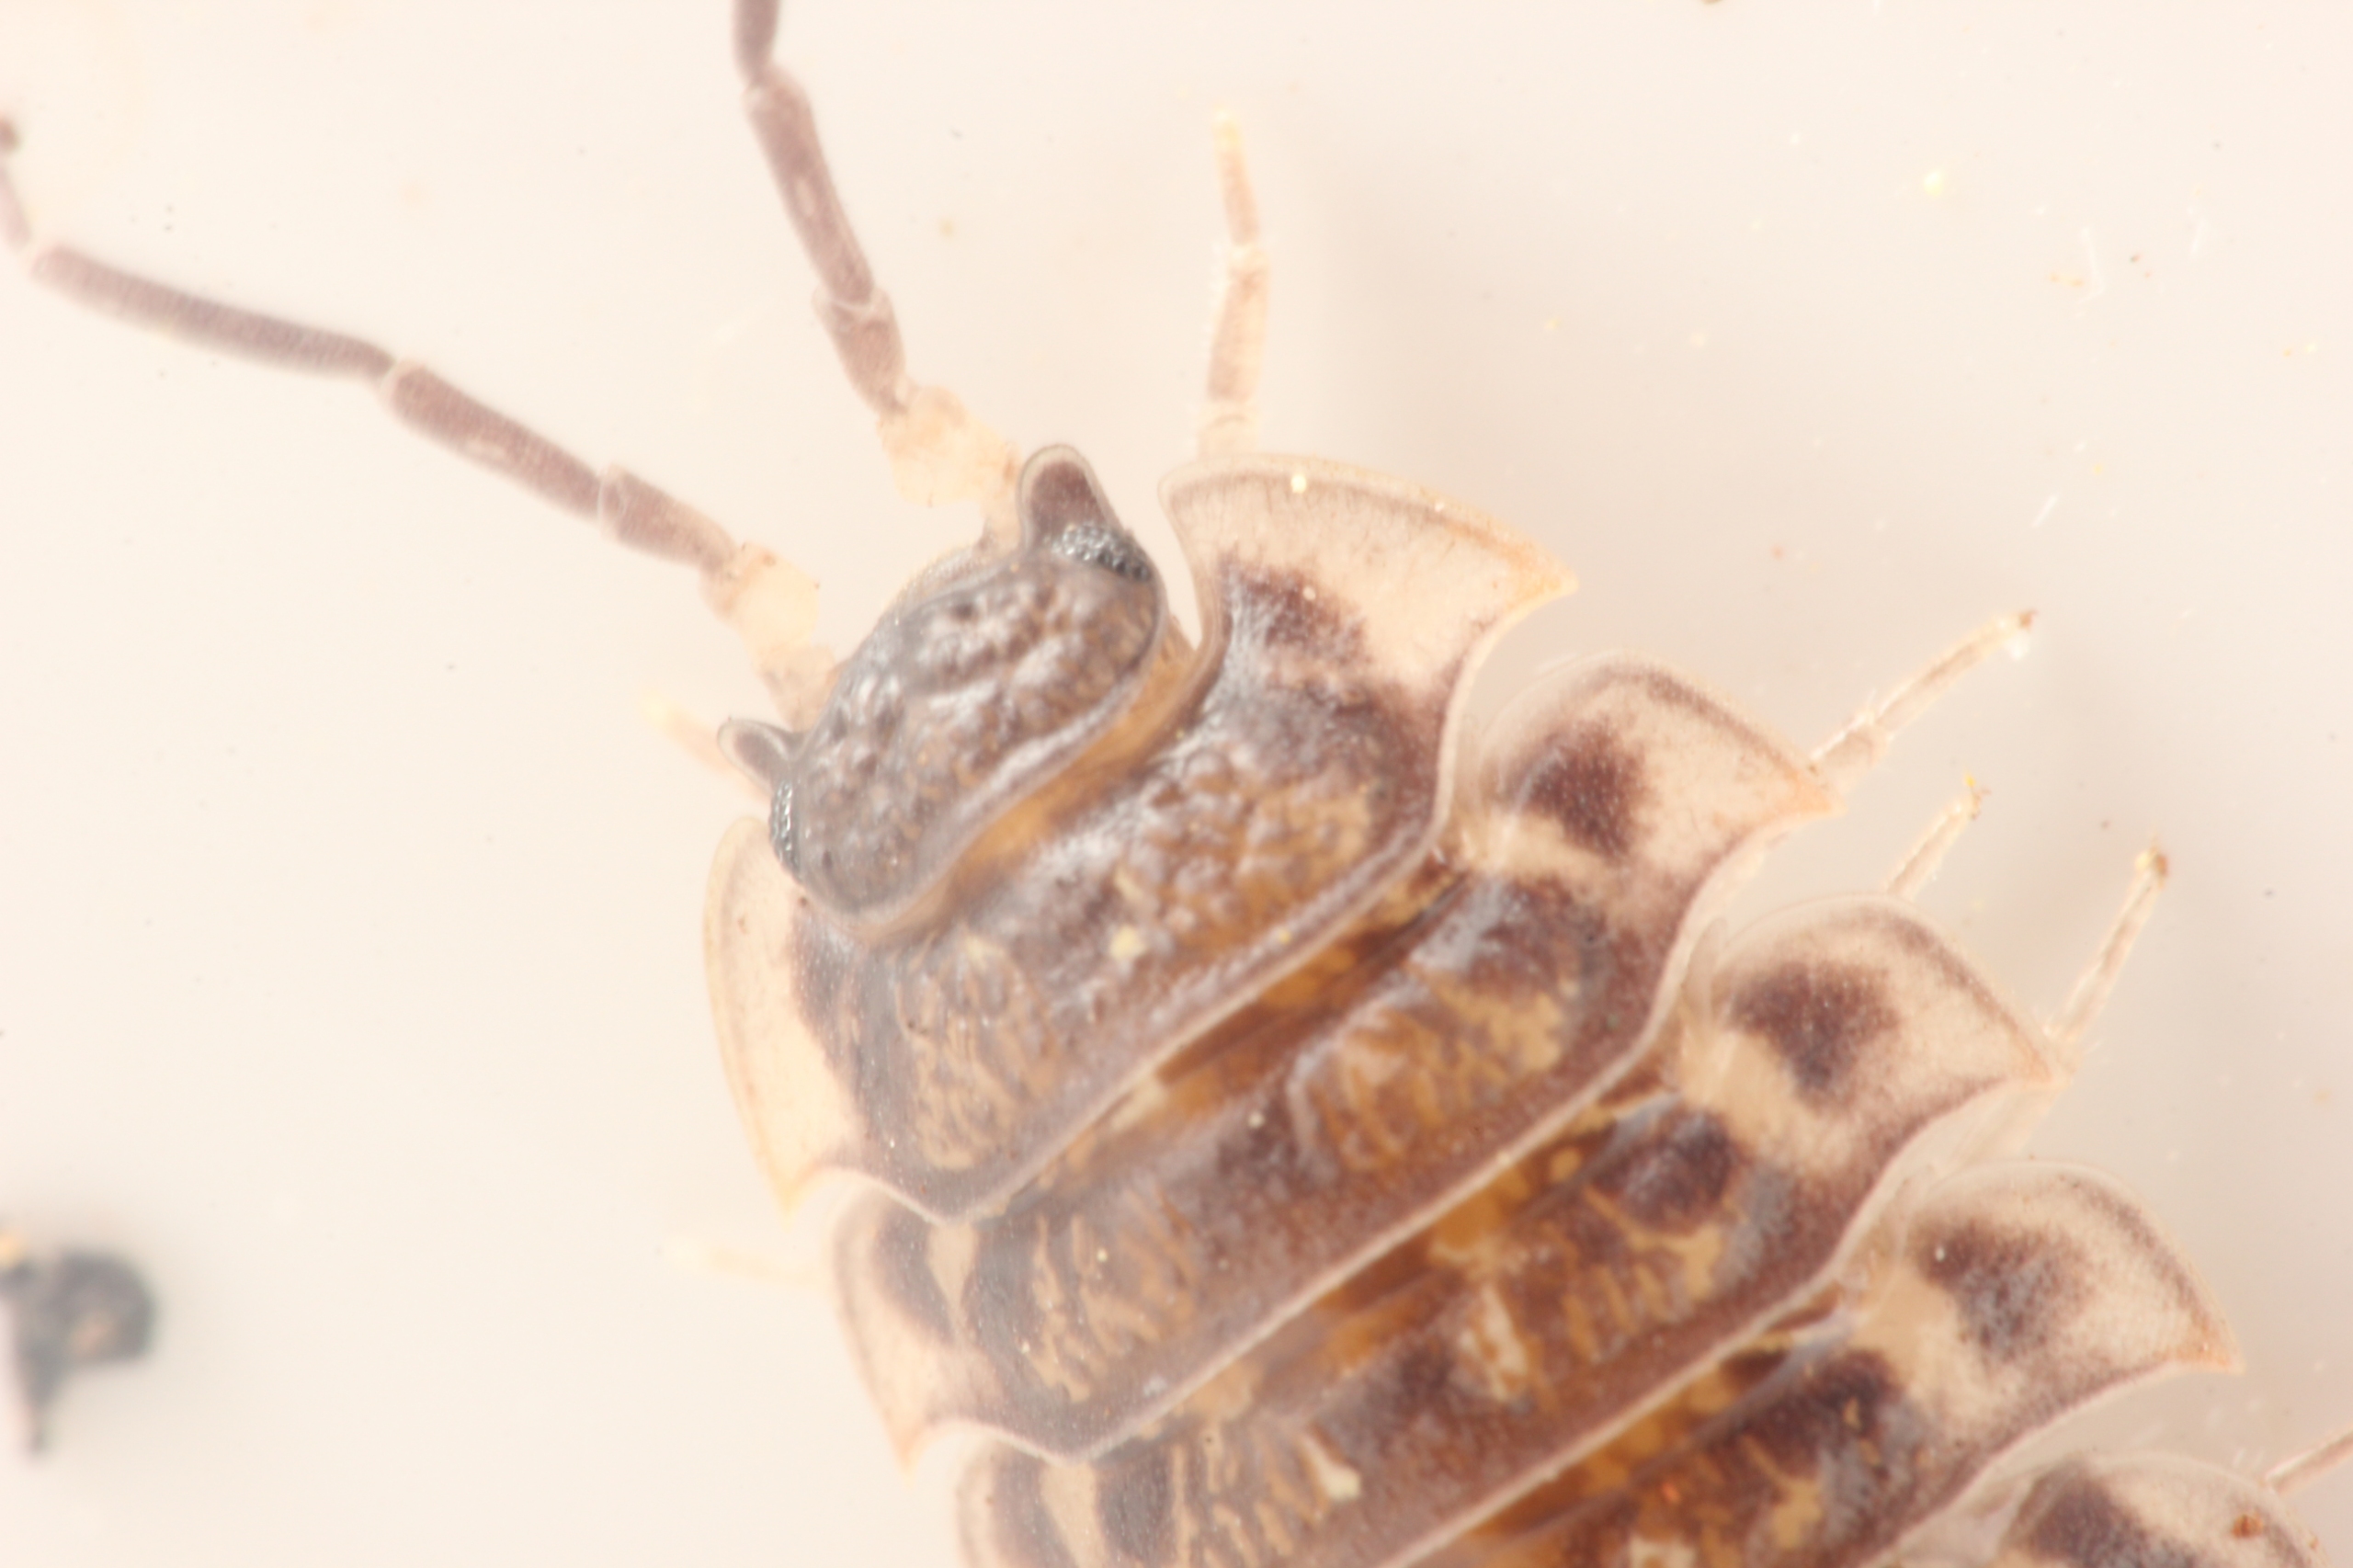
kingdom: Animalia
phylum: Arthropoda
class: Malacostraca
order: Isopoda
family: Oniscidae
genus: Oniscus
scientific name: Oniscus asellus
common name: Glat bænkebider
